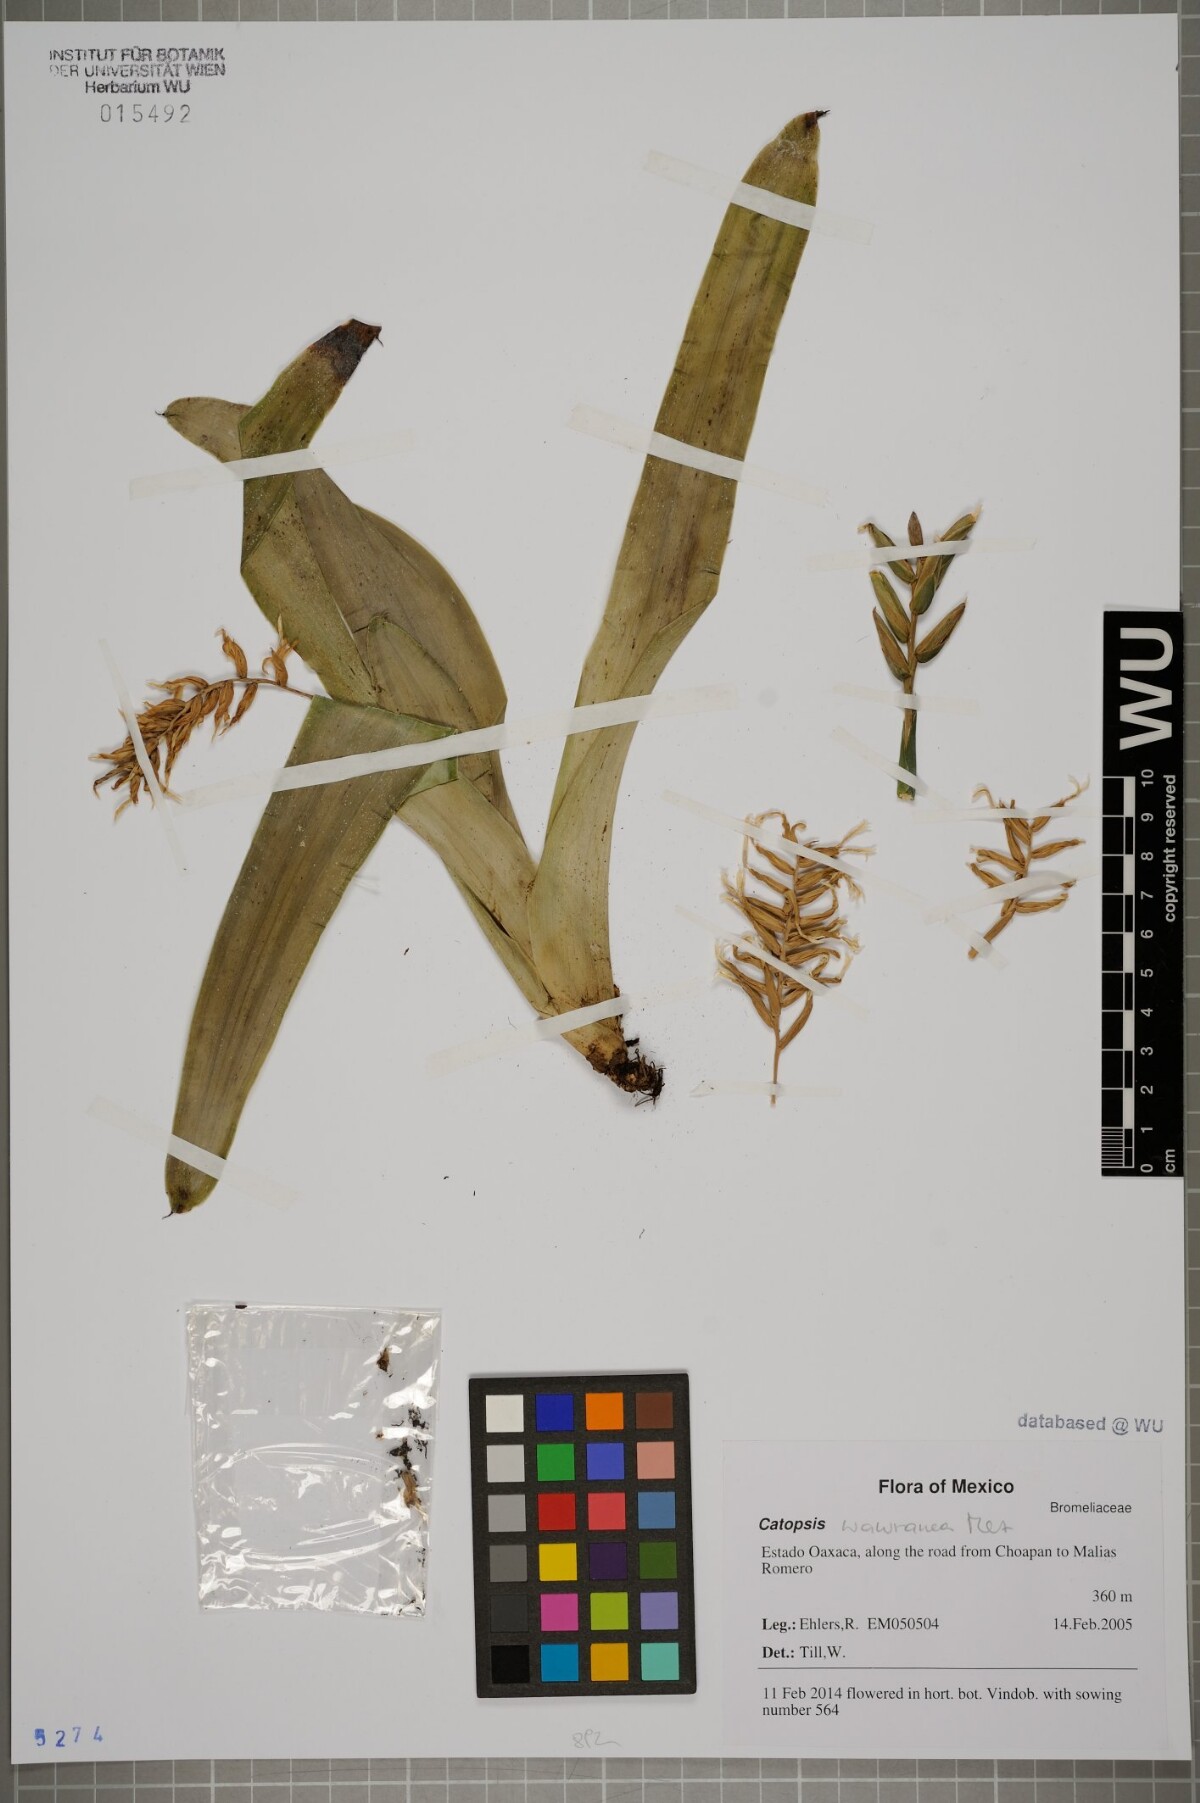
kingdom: Plantae
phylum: Tracheophyta
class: Liliopsida
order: Poales
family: Bromeliaceae
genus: Catopsis
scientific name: Catopsis wawranea
